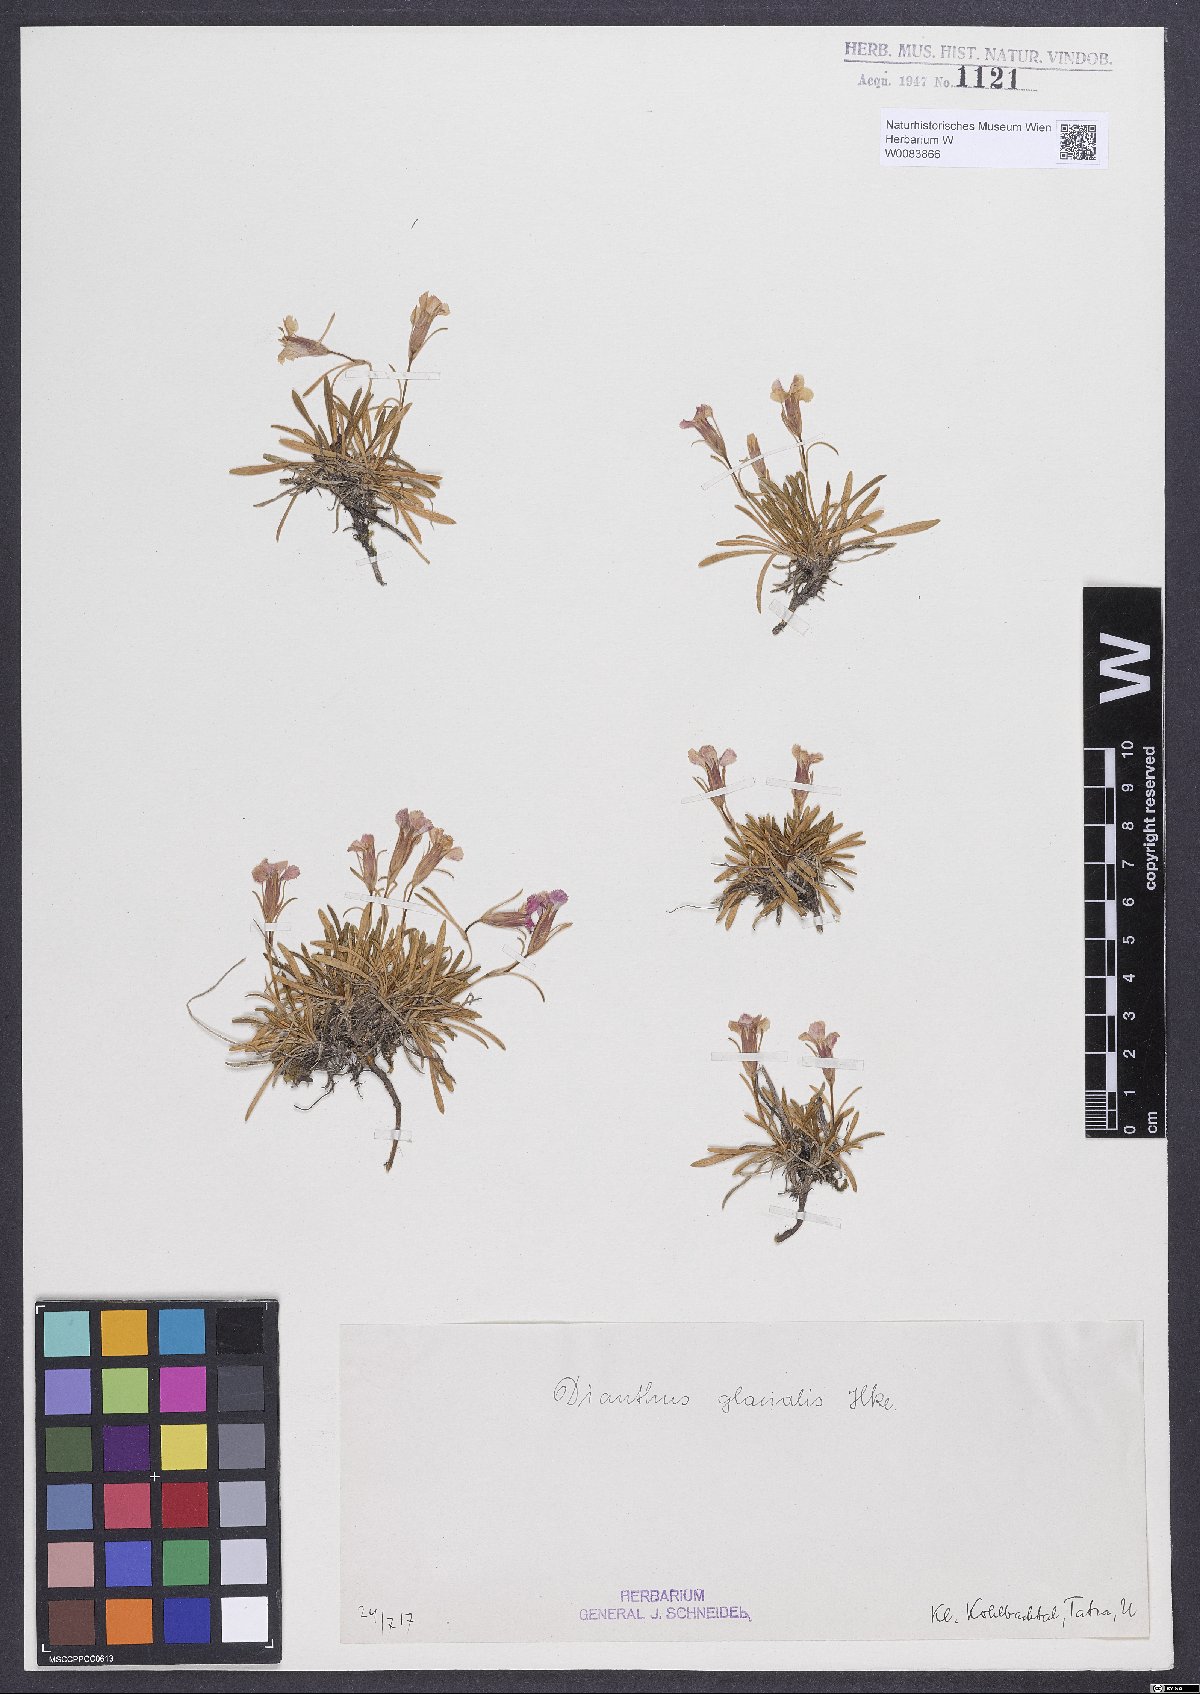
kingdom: Plantae
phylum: Tracheophyta
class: Magnoliopsida
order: Caryophyllales
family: Caryophyllaceae
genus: Dianthus
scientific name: Dianthus glacialis
